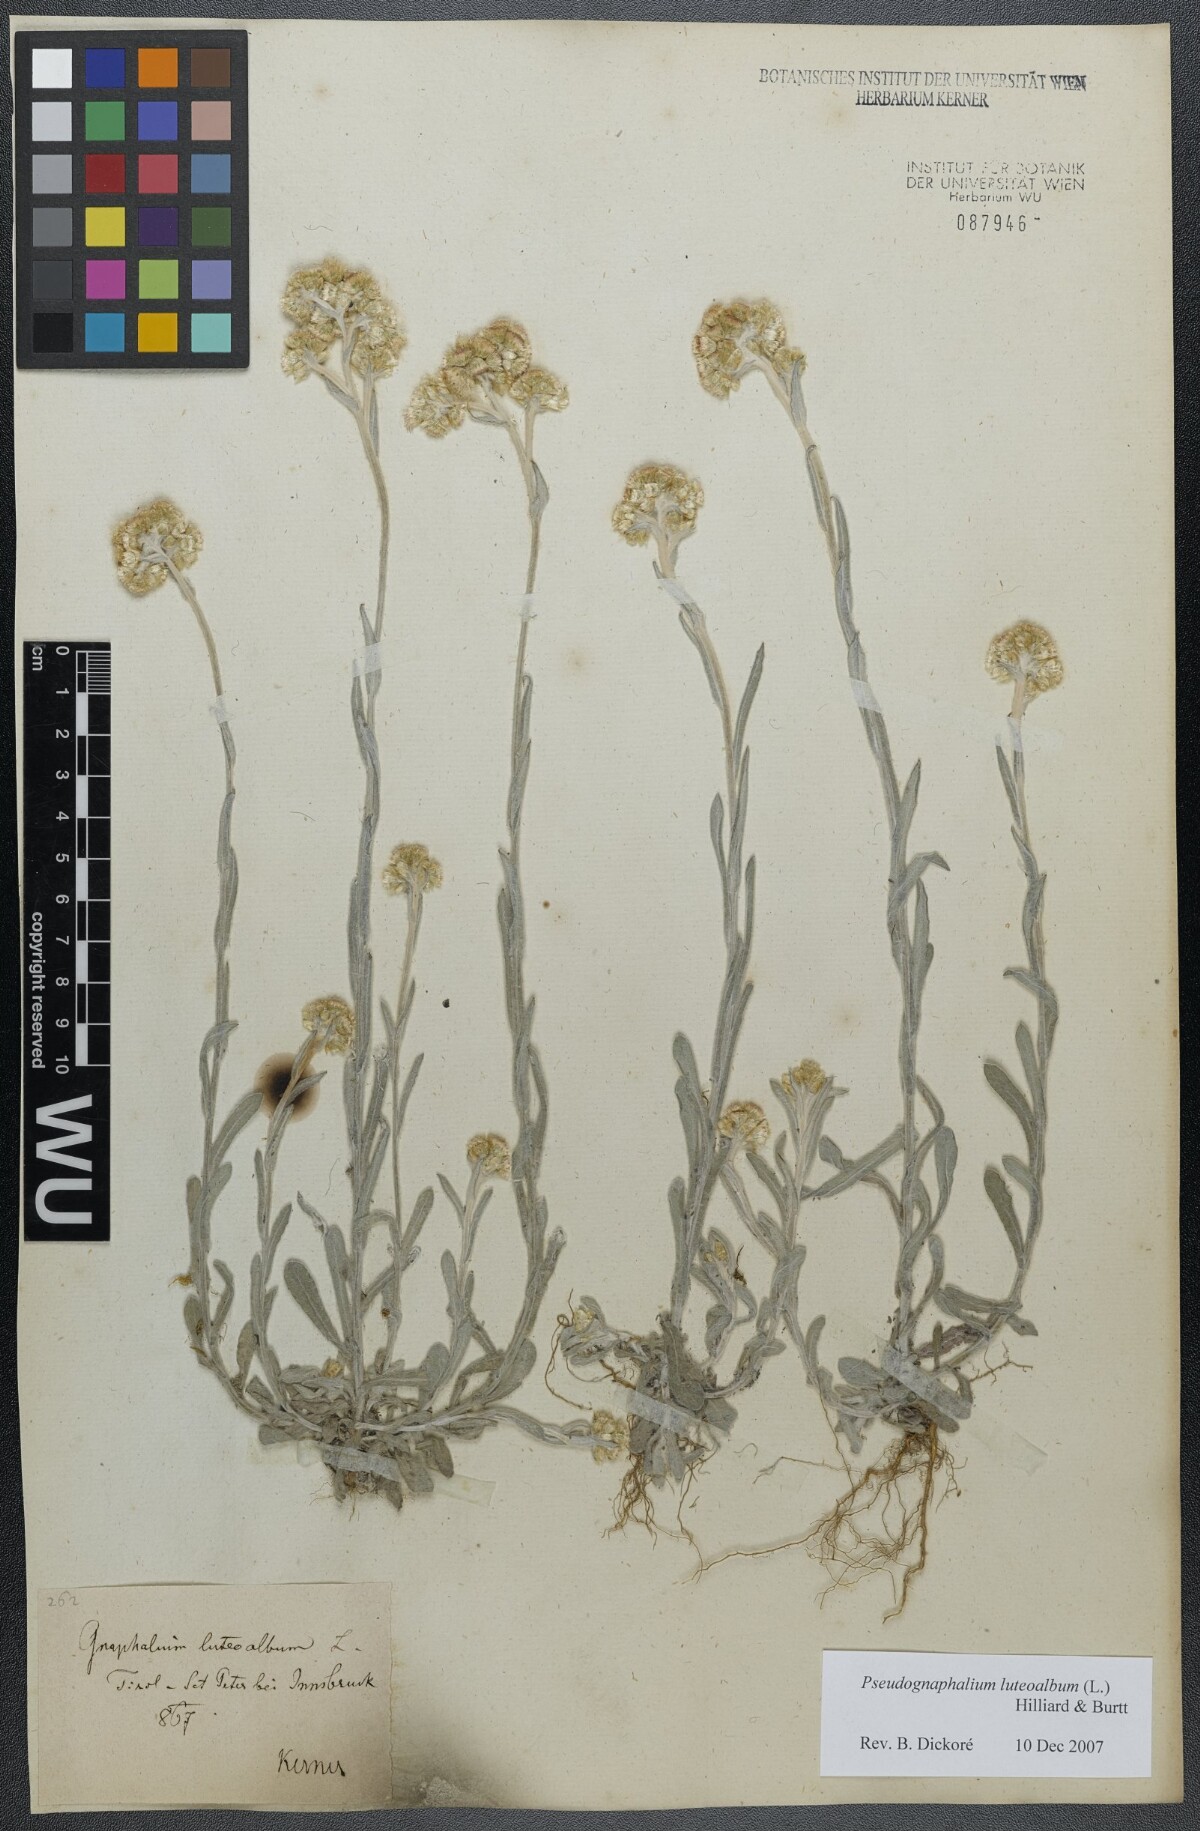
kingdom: Plantae
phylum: Tracheophyta
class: Magnoliopsida
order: Asterales
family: Asteraceae
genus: Helichrysum
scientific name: Helichrysum luteoalbum
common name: Daisy
